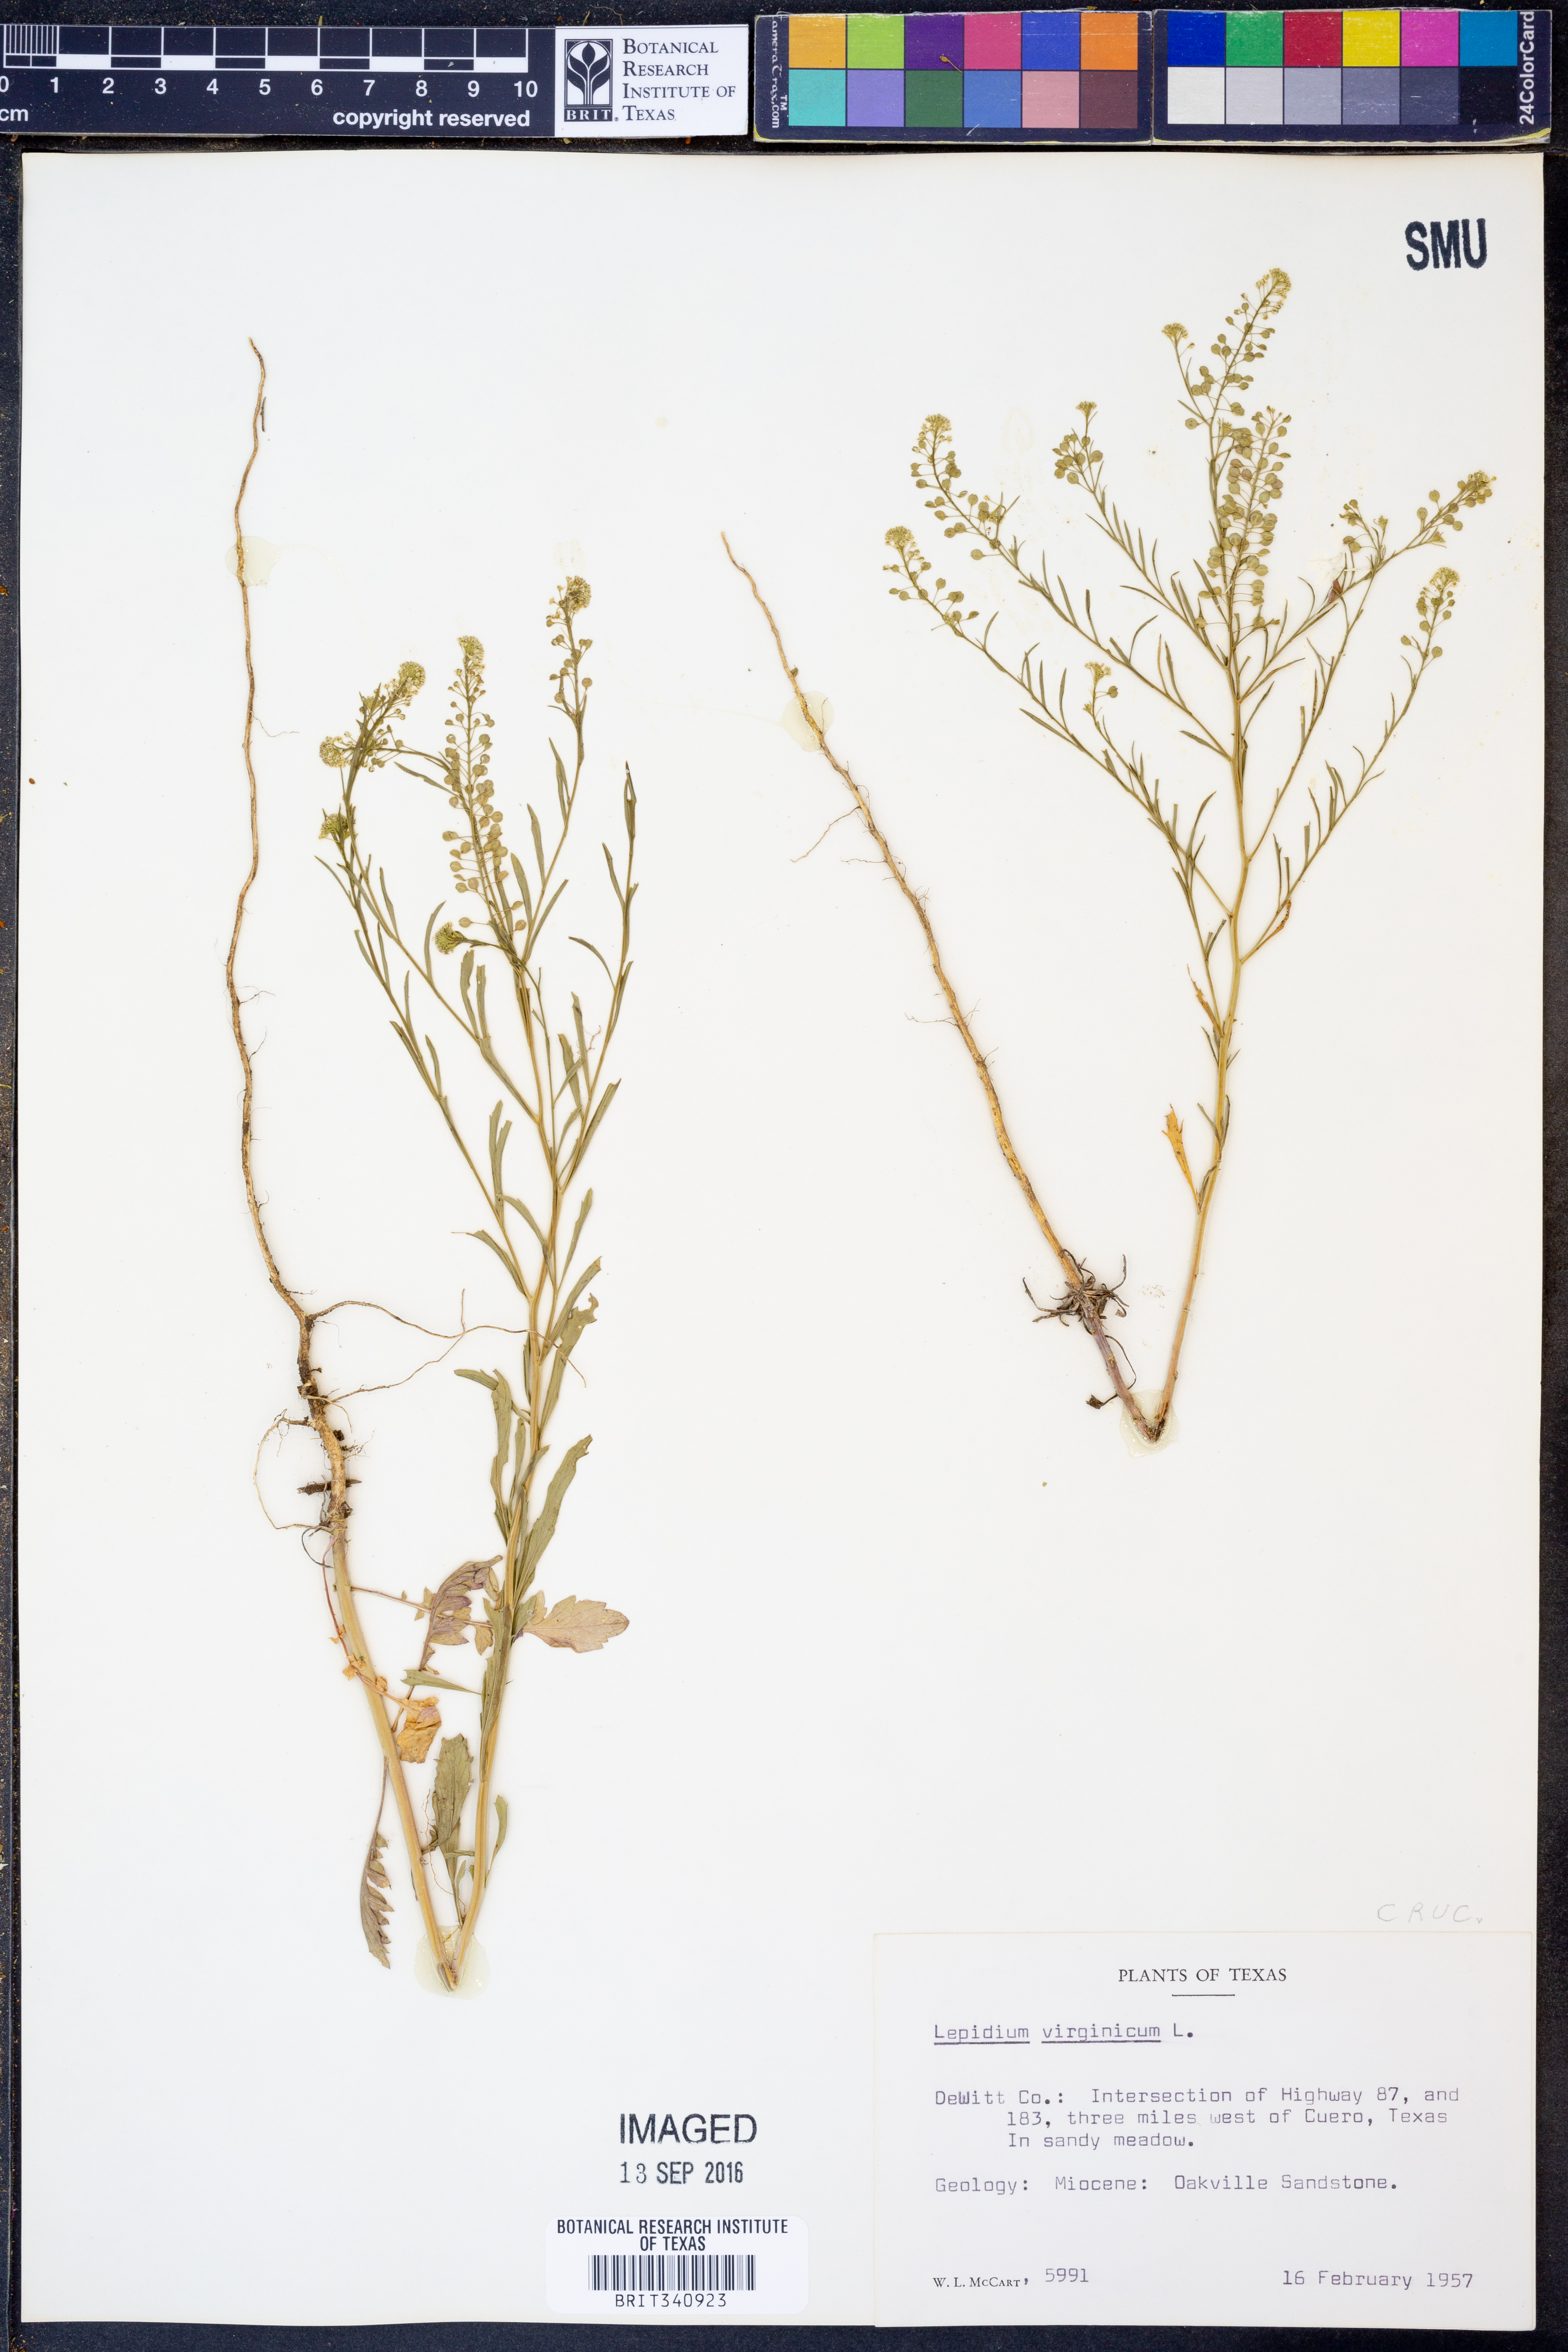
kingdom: Plantae
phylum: Tracheophyta
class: Magnoliopsida
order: Brassicales
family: Brassicaceae
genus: Lepidium
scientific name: Lepidium virginicum
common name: Least pepperwort
